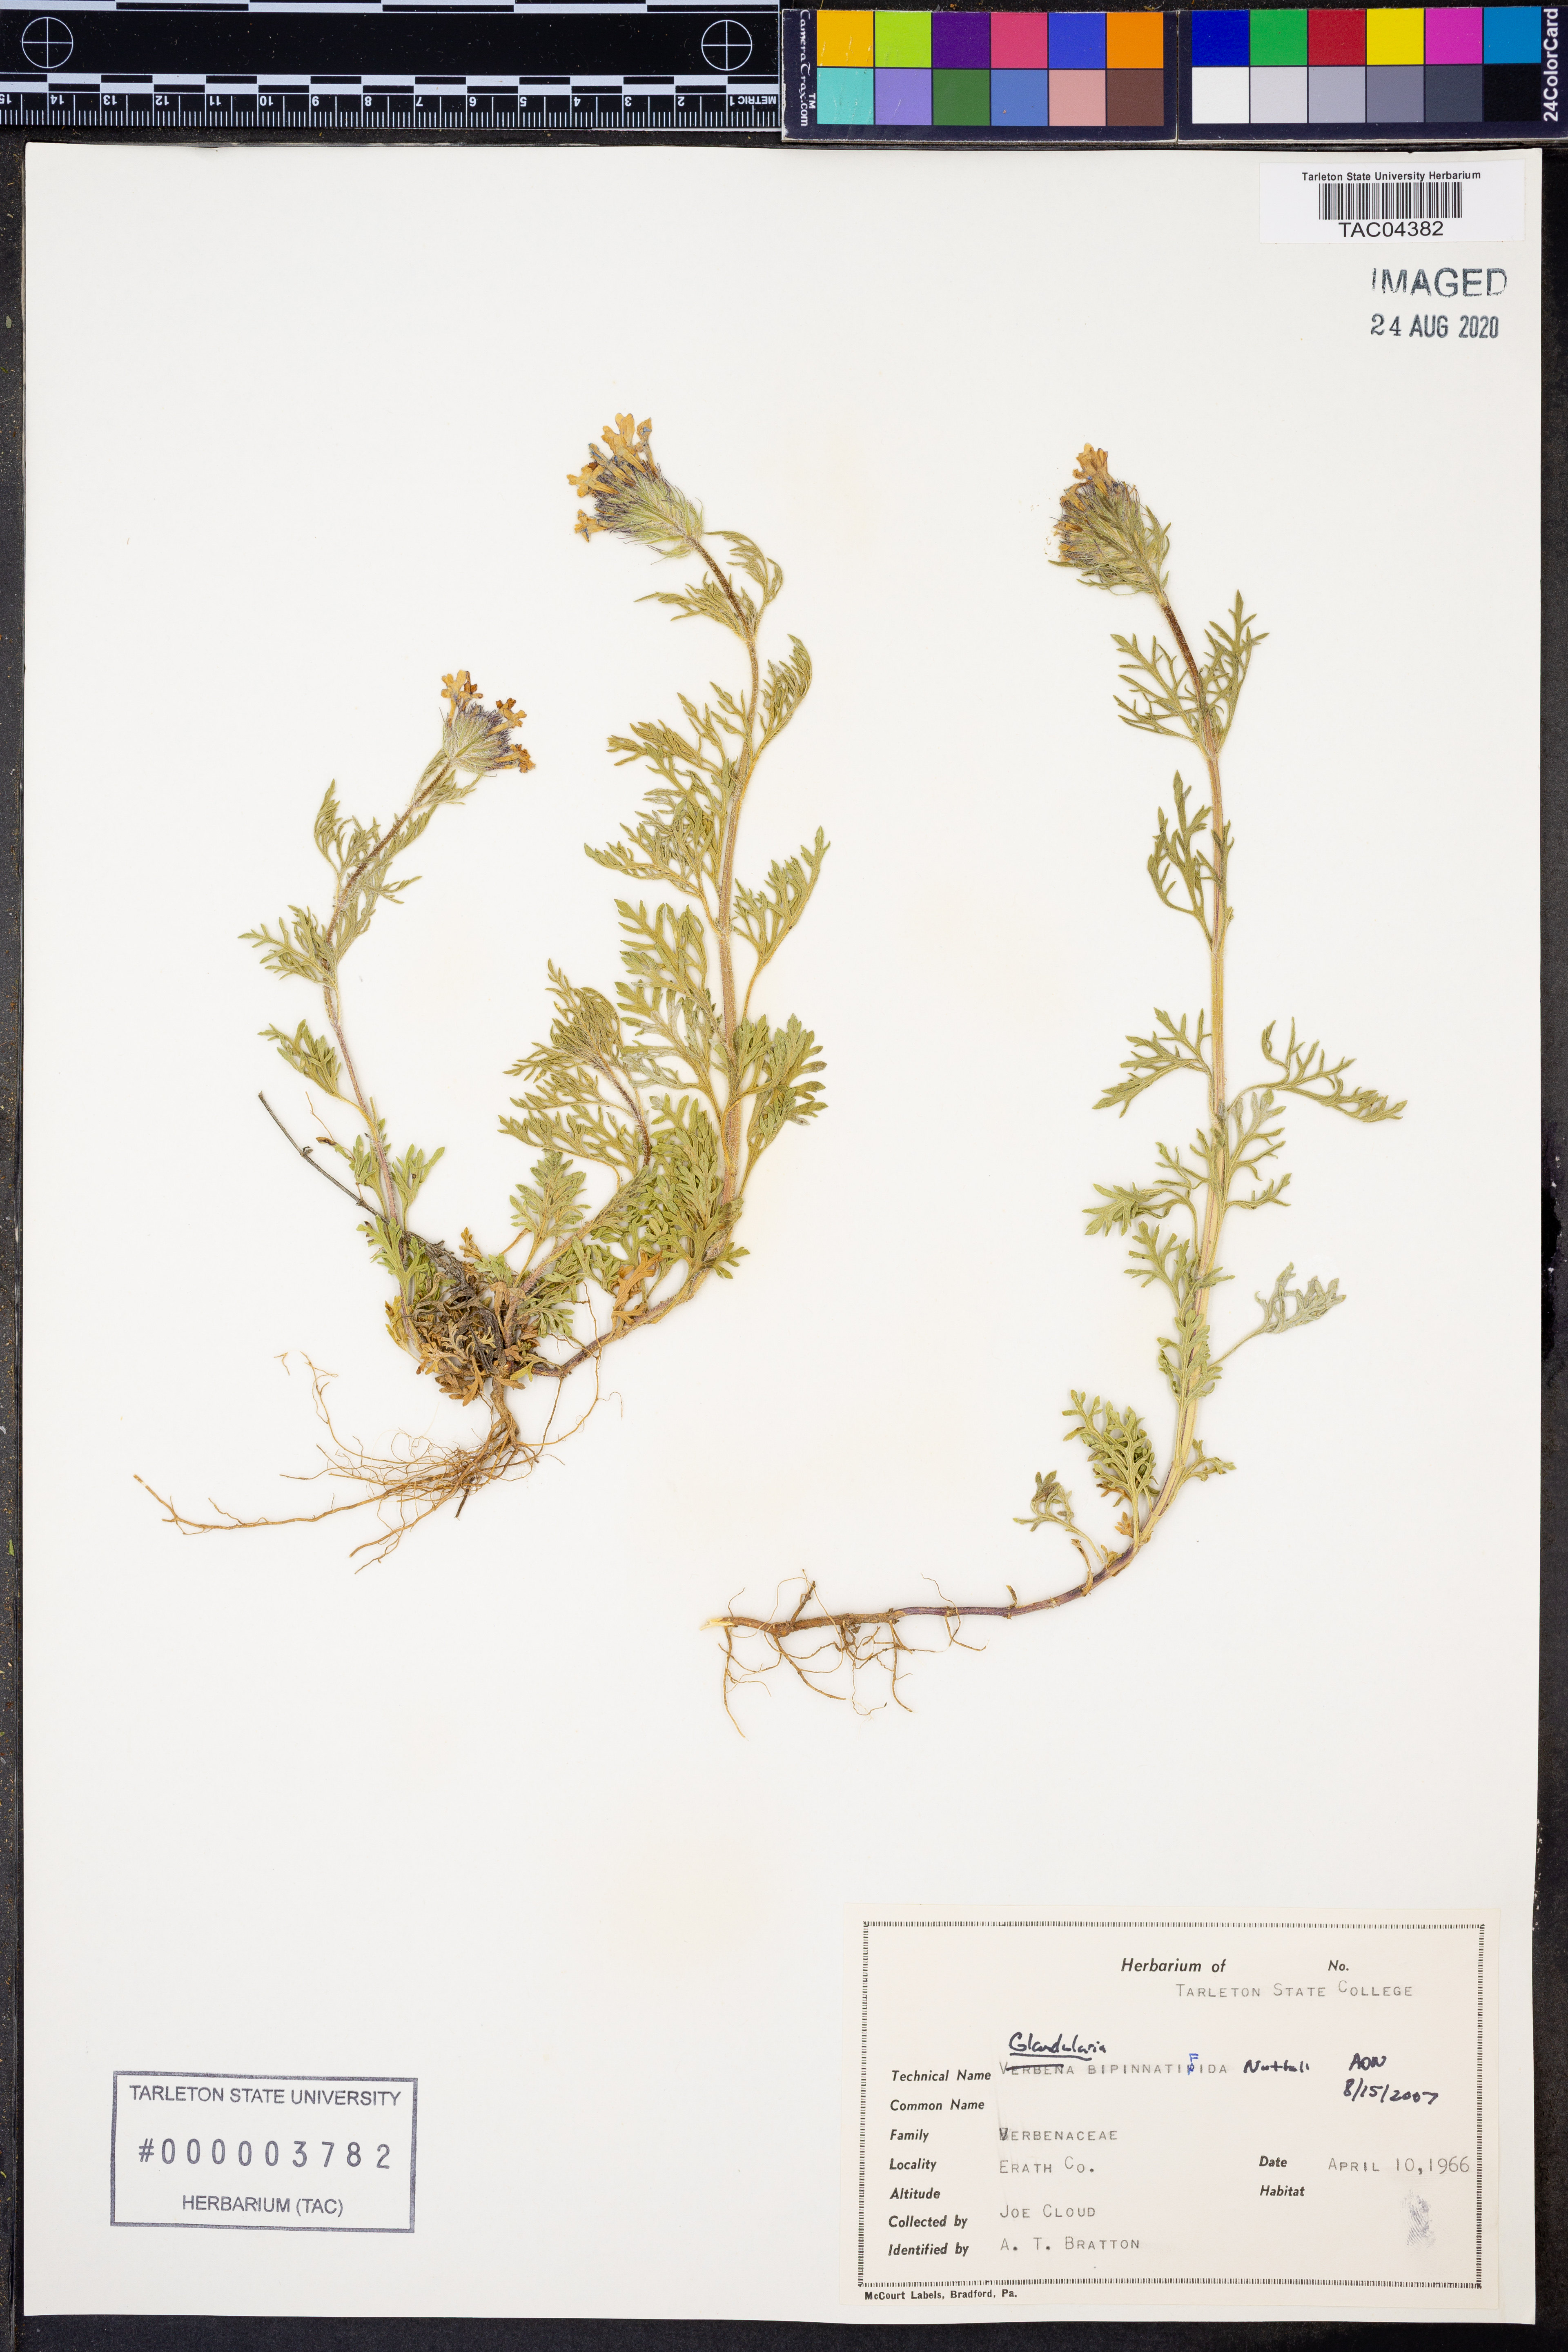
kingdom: Plantae
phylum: Tracheophyta
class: Magnoliopsida
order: Lamiales
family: Verbenaceae
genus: Verbena
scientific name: Verbena bipinnatifida
